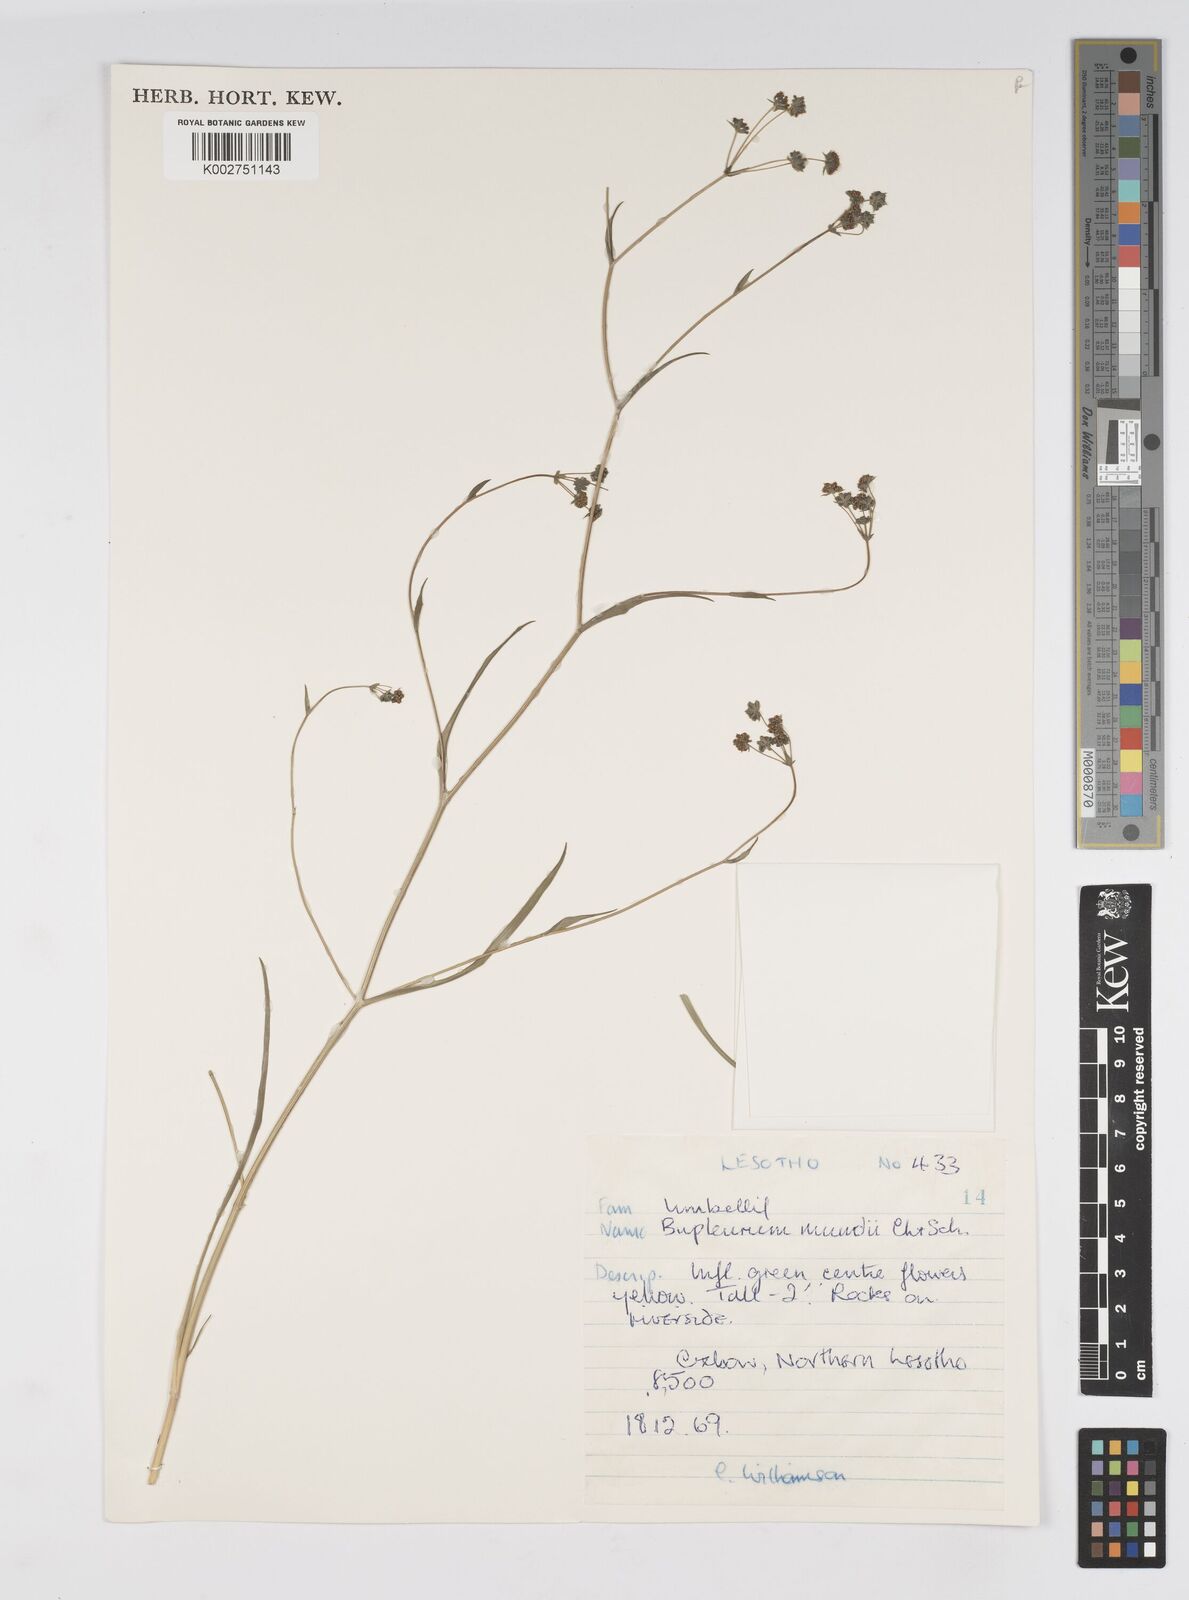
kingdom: Plantae
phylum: Tracheophyta
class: Magnoliopsida
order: Apiales
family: Apiaceae
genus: Bupleurum
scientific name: Bupleurum mundii
